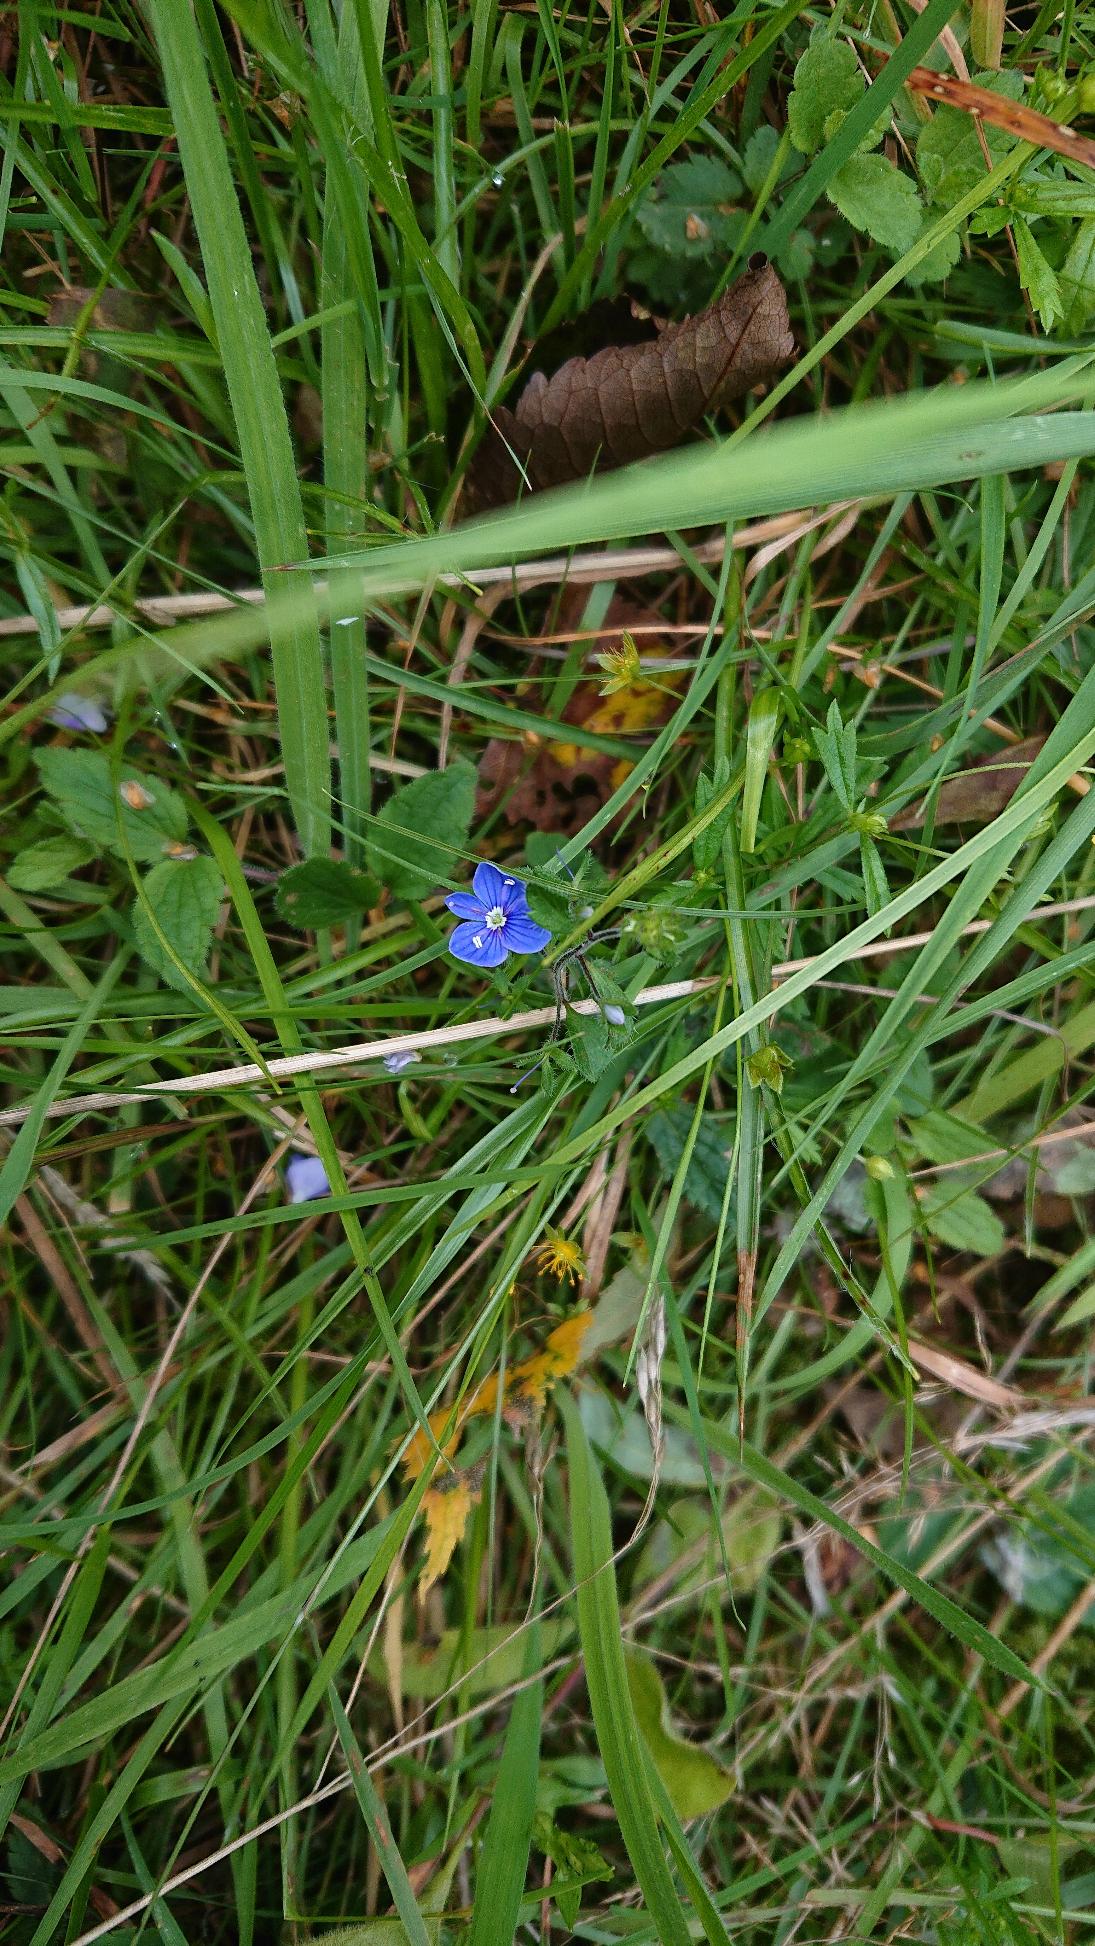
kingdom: Plantae
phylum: Tracheophyta
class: Magnoliopsida
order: Lamiales
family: Plantaginaceae
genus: Veronica
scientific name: Veronica chamaedrys
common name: Tveskægget ærenpris
